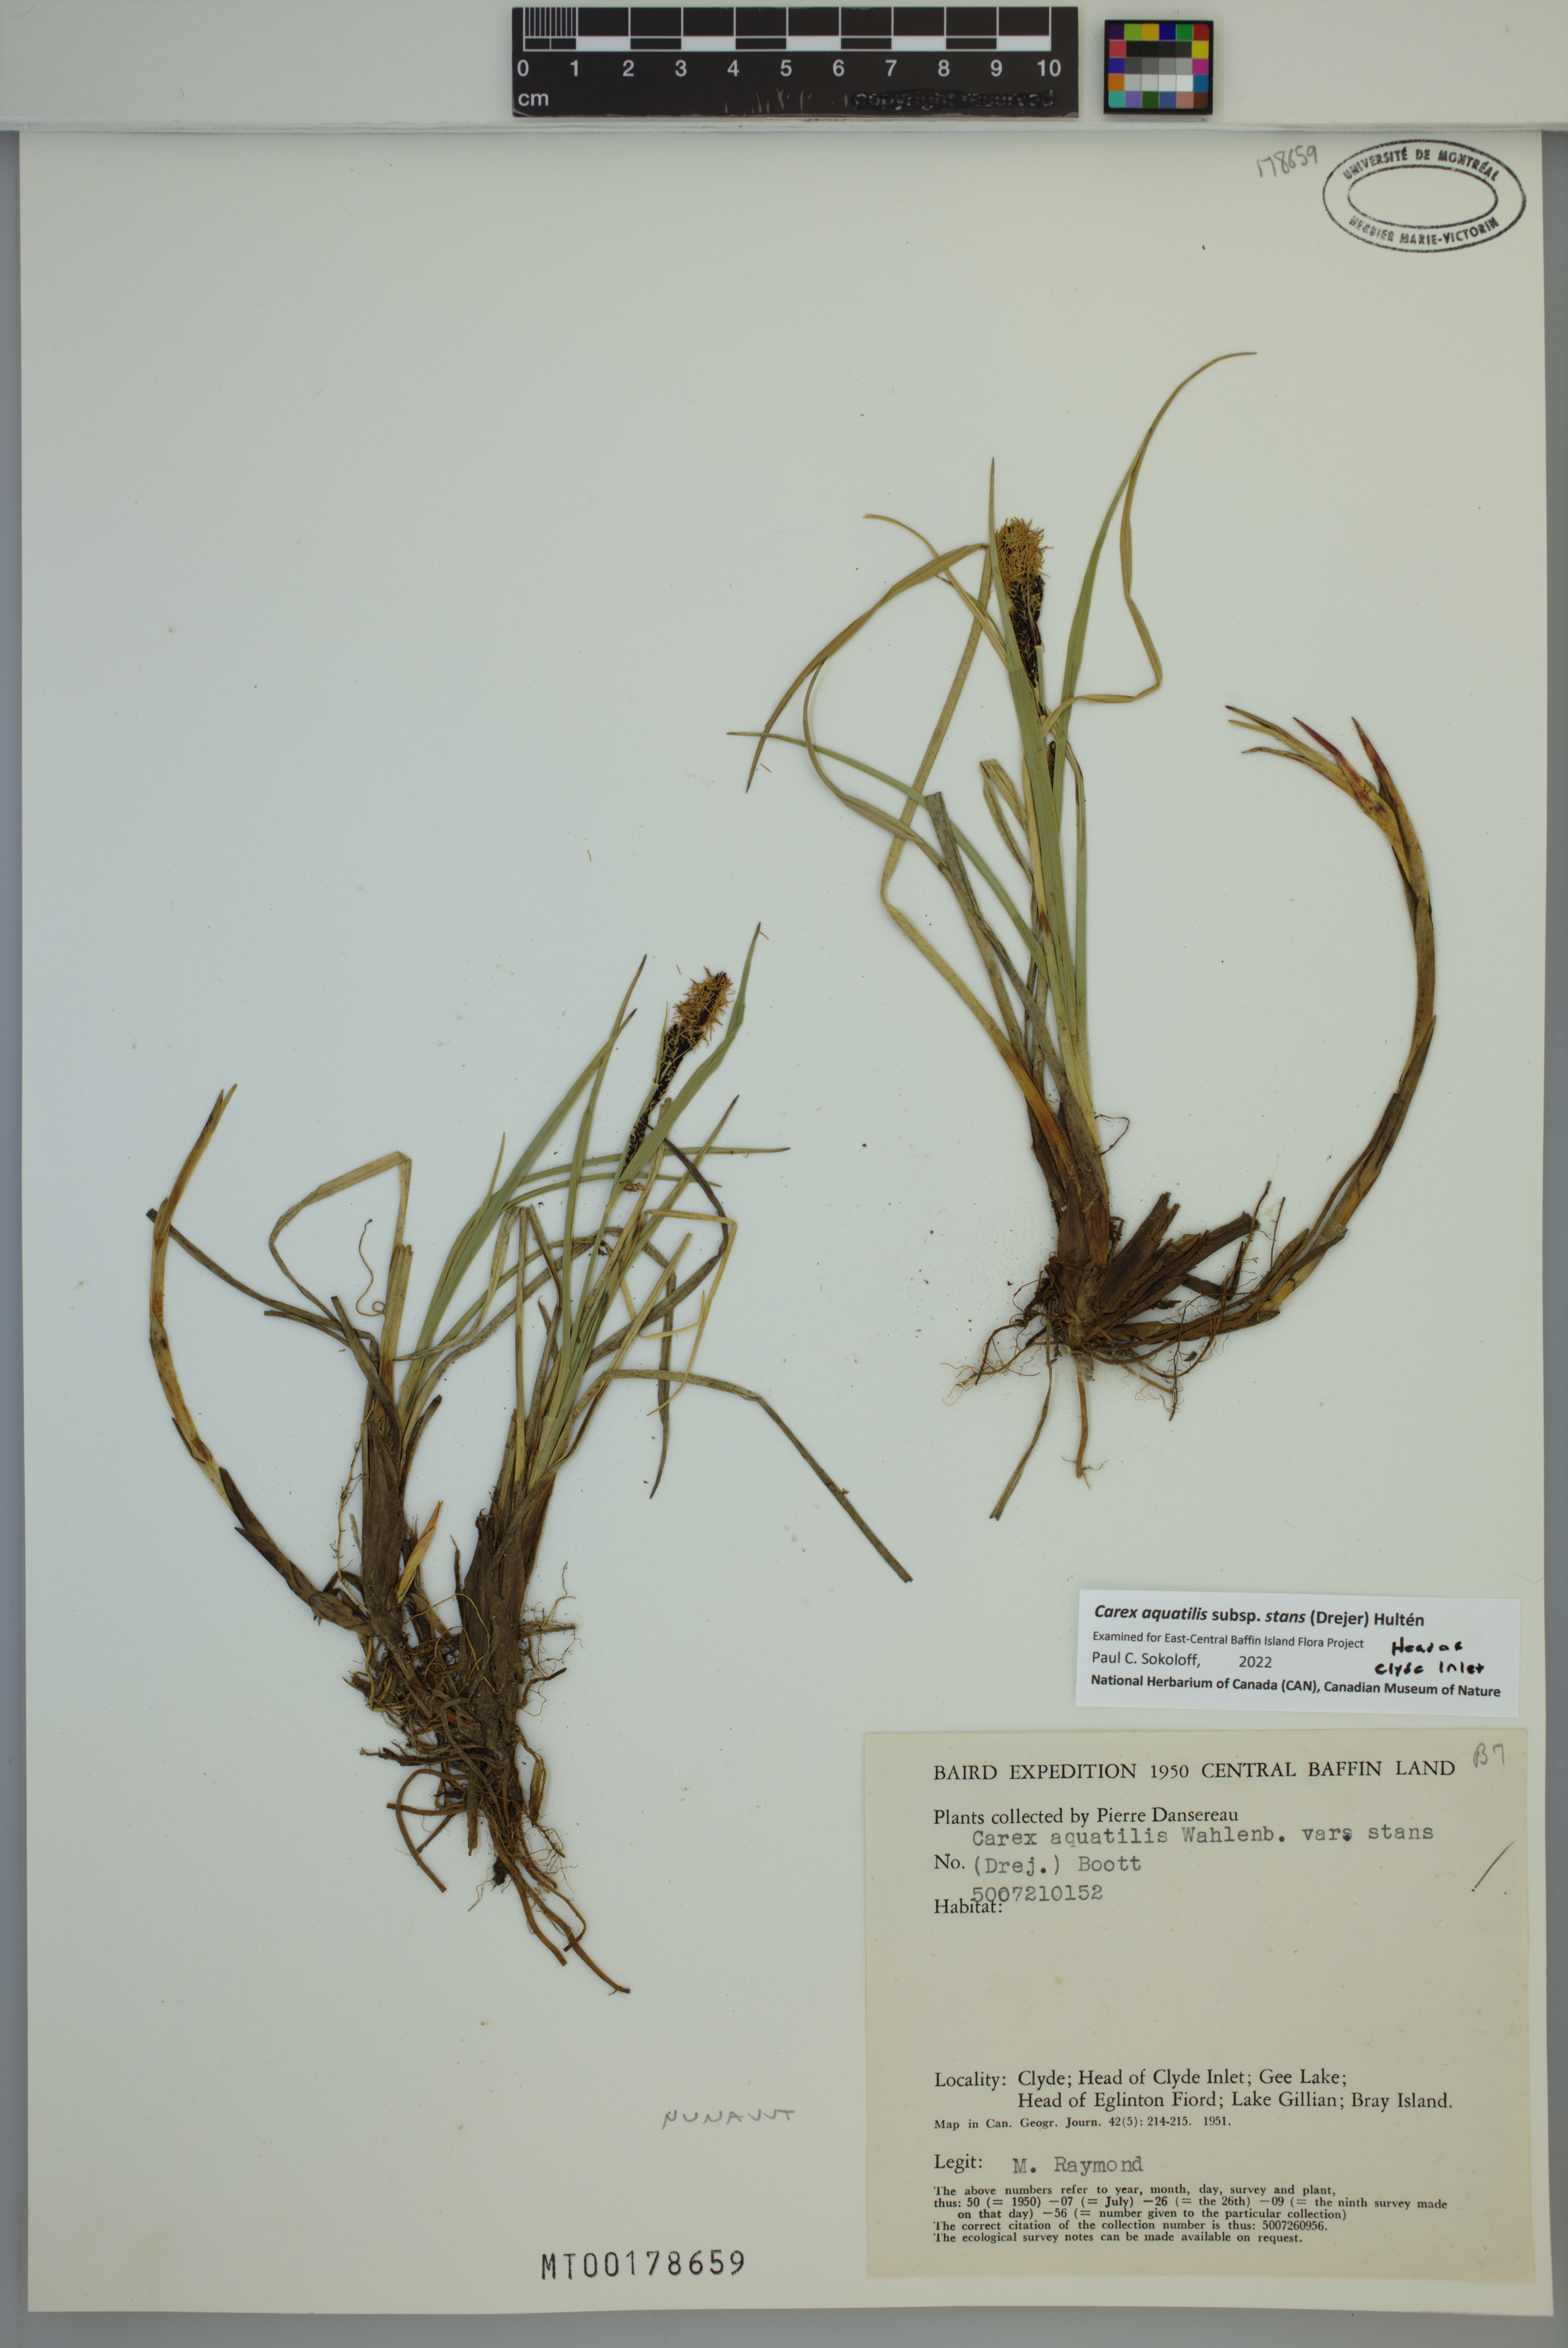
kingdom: Plantae
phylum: Tracheophyta
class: Liliopsida
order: Poales
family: Cyperaceae
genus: Carex
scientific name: Carex aquatilis
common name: Water sedge
